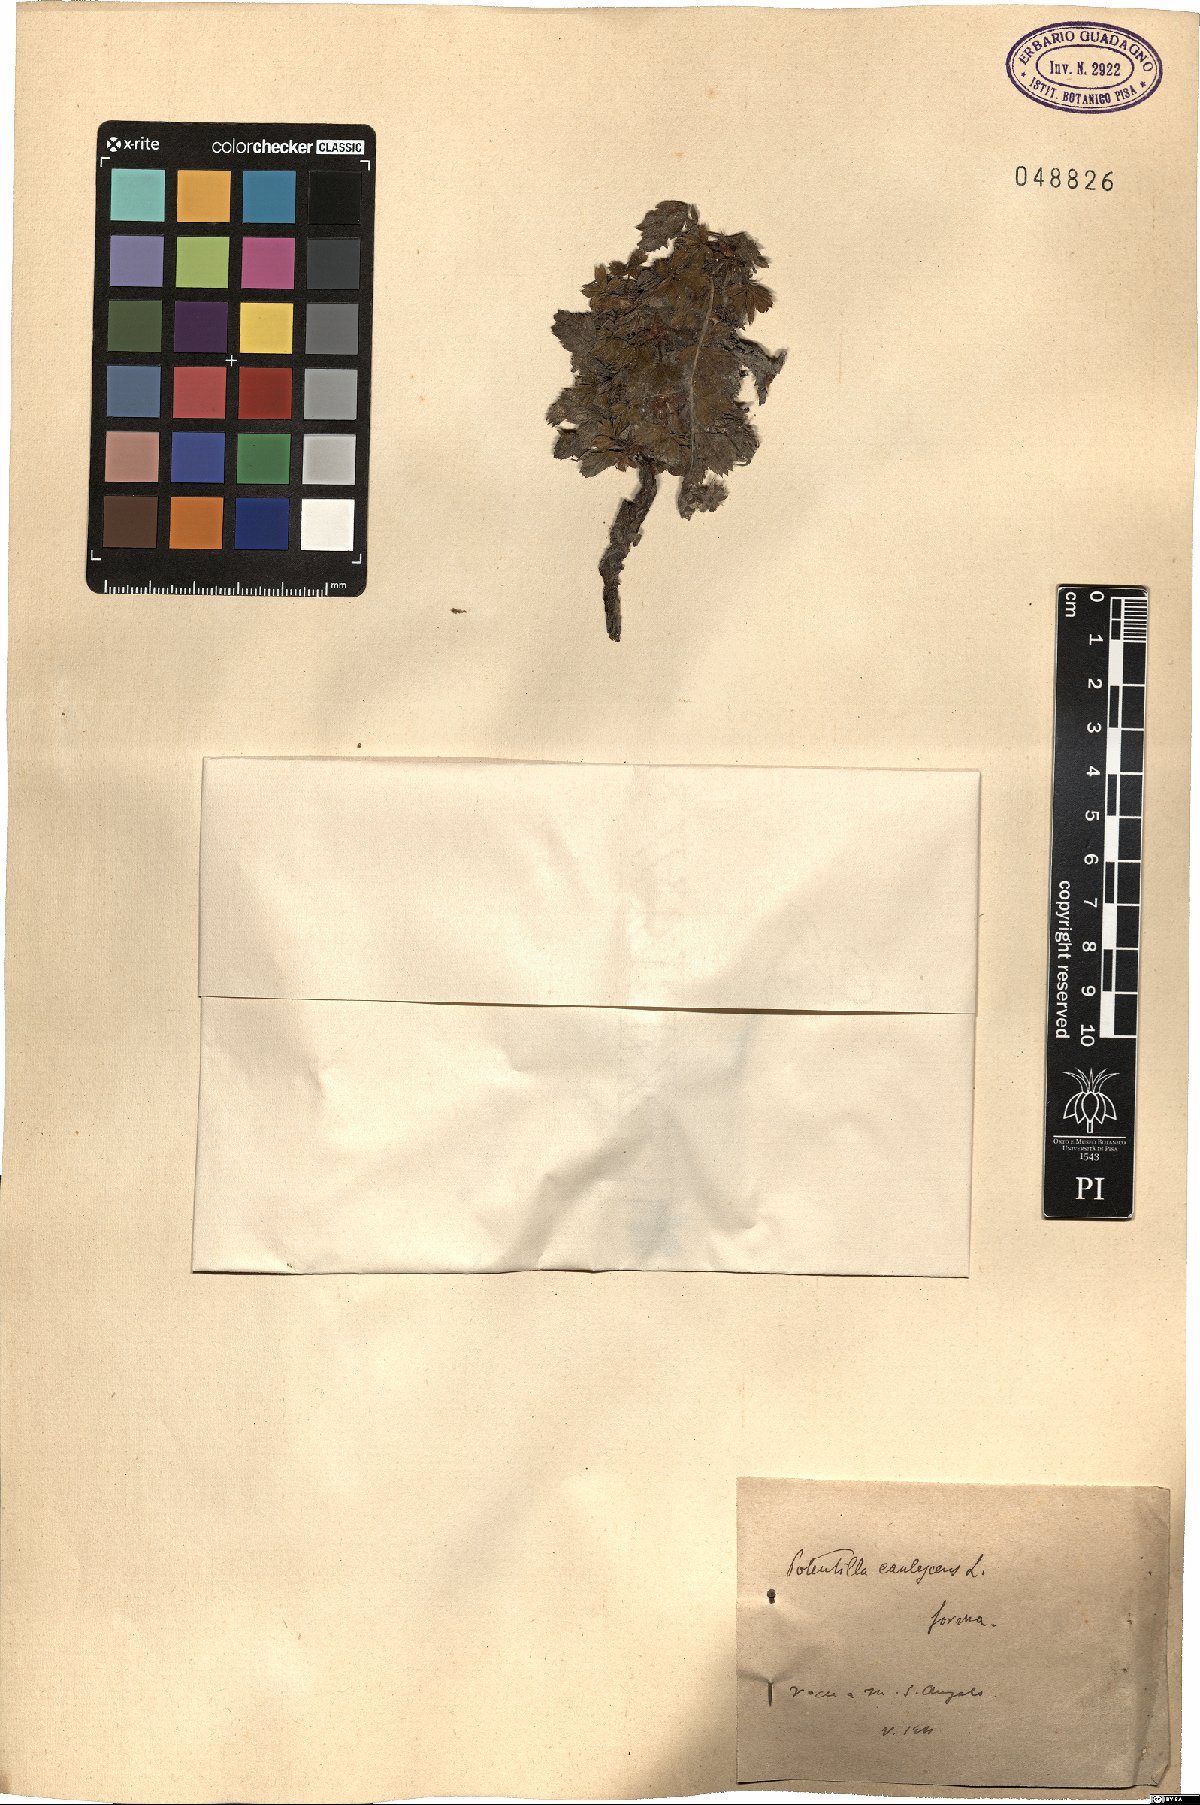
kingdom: Plantae
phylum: Tracheophyta
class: Magnoliopsida
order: Rosales
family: Rosaceae
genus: Potentilla
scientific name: Potentilla caulescens
